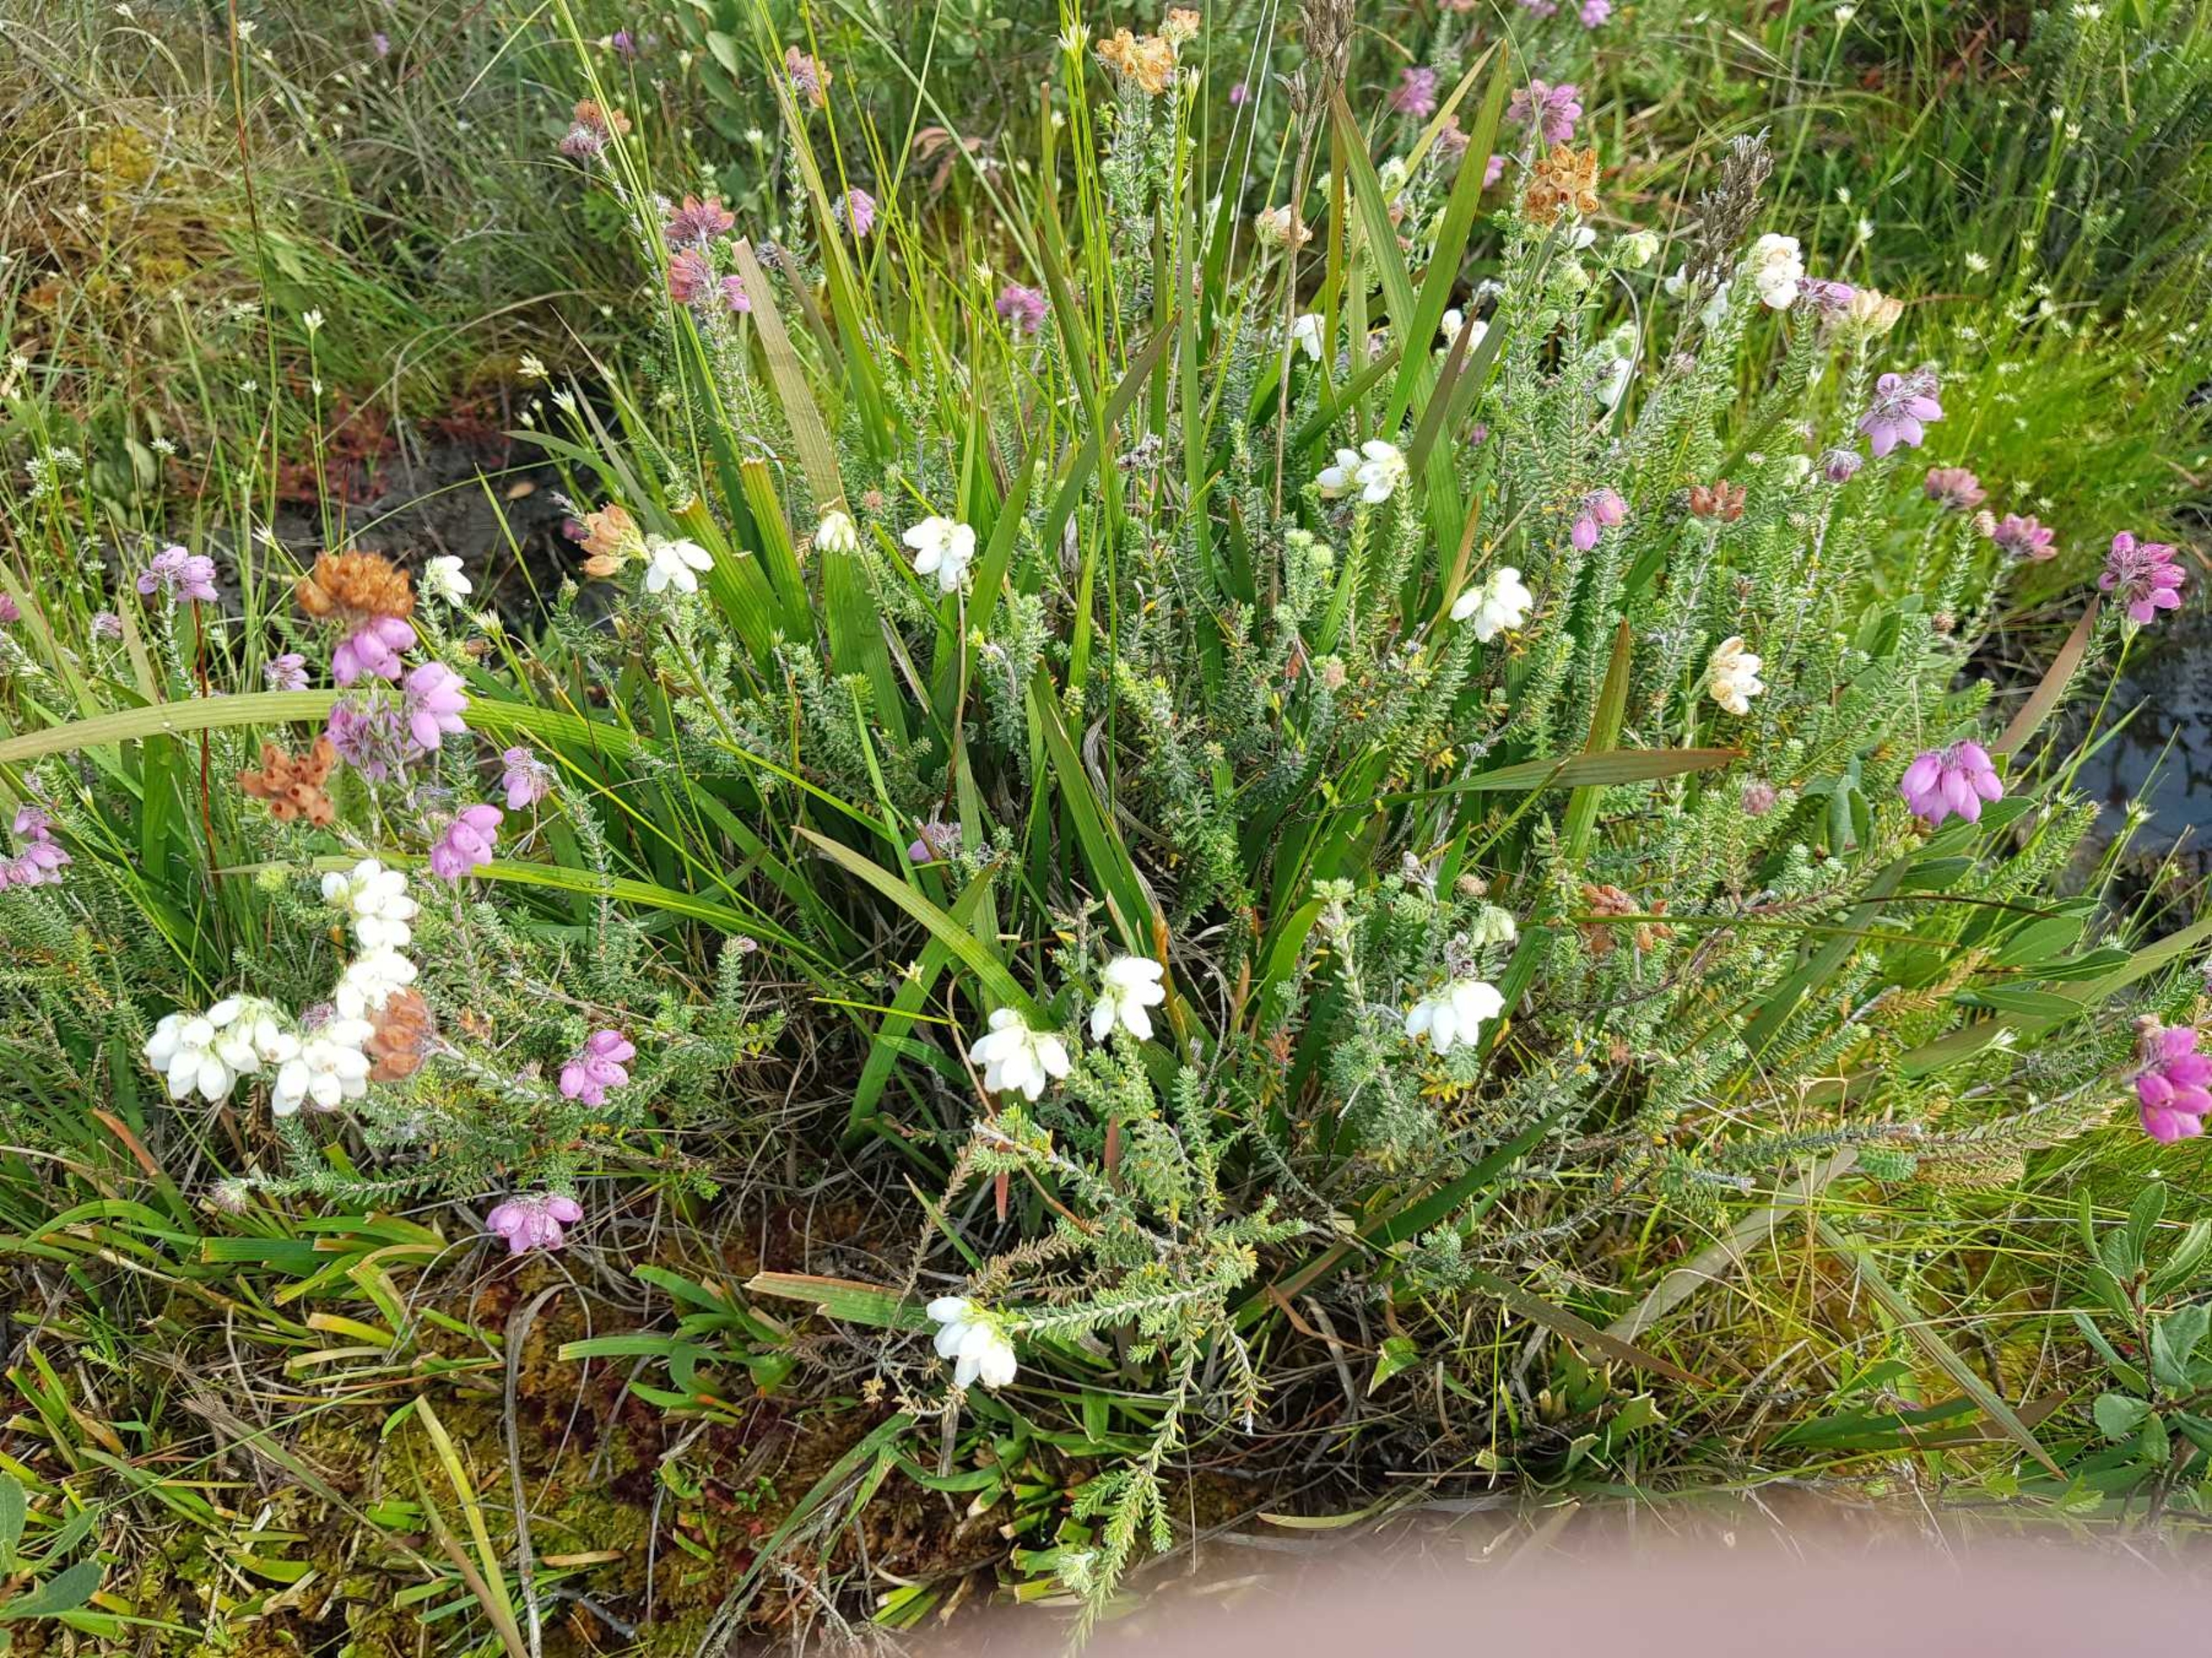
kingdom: Plantae
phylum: Tracheophyta
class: Magnoliopsida
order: Ericales
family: Ericaceae
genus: Erica
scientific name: Erica tetralix
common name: Klokkelyng
